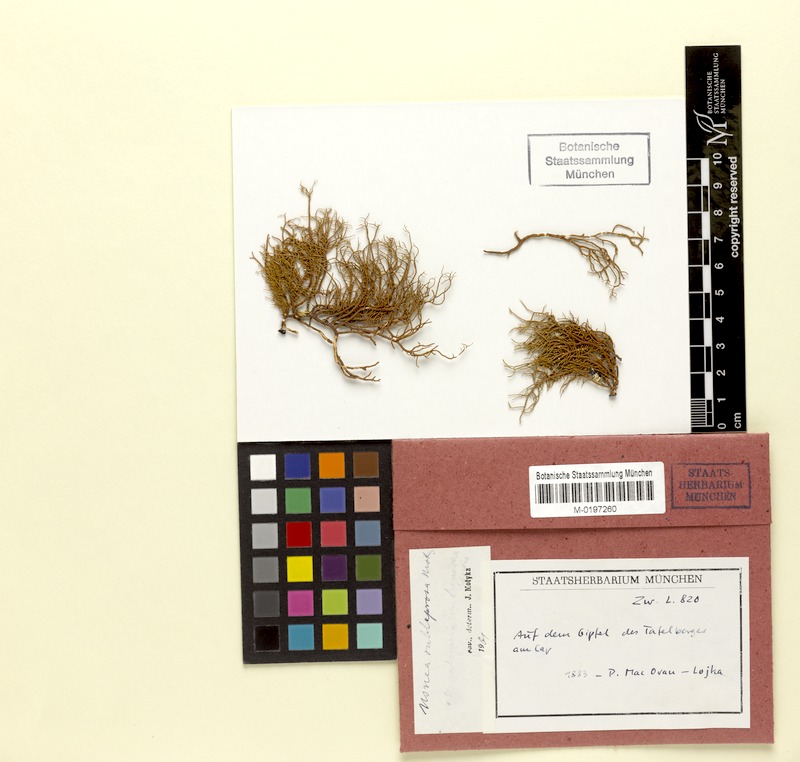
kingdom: Fungi
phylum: Ascomycota
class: Lecanoromycetes
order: Lecanorales
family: Parmeliaceae
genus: Usnea
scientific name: Usnea subleprosa
